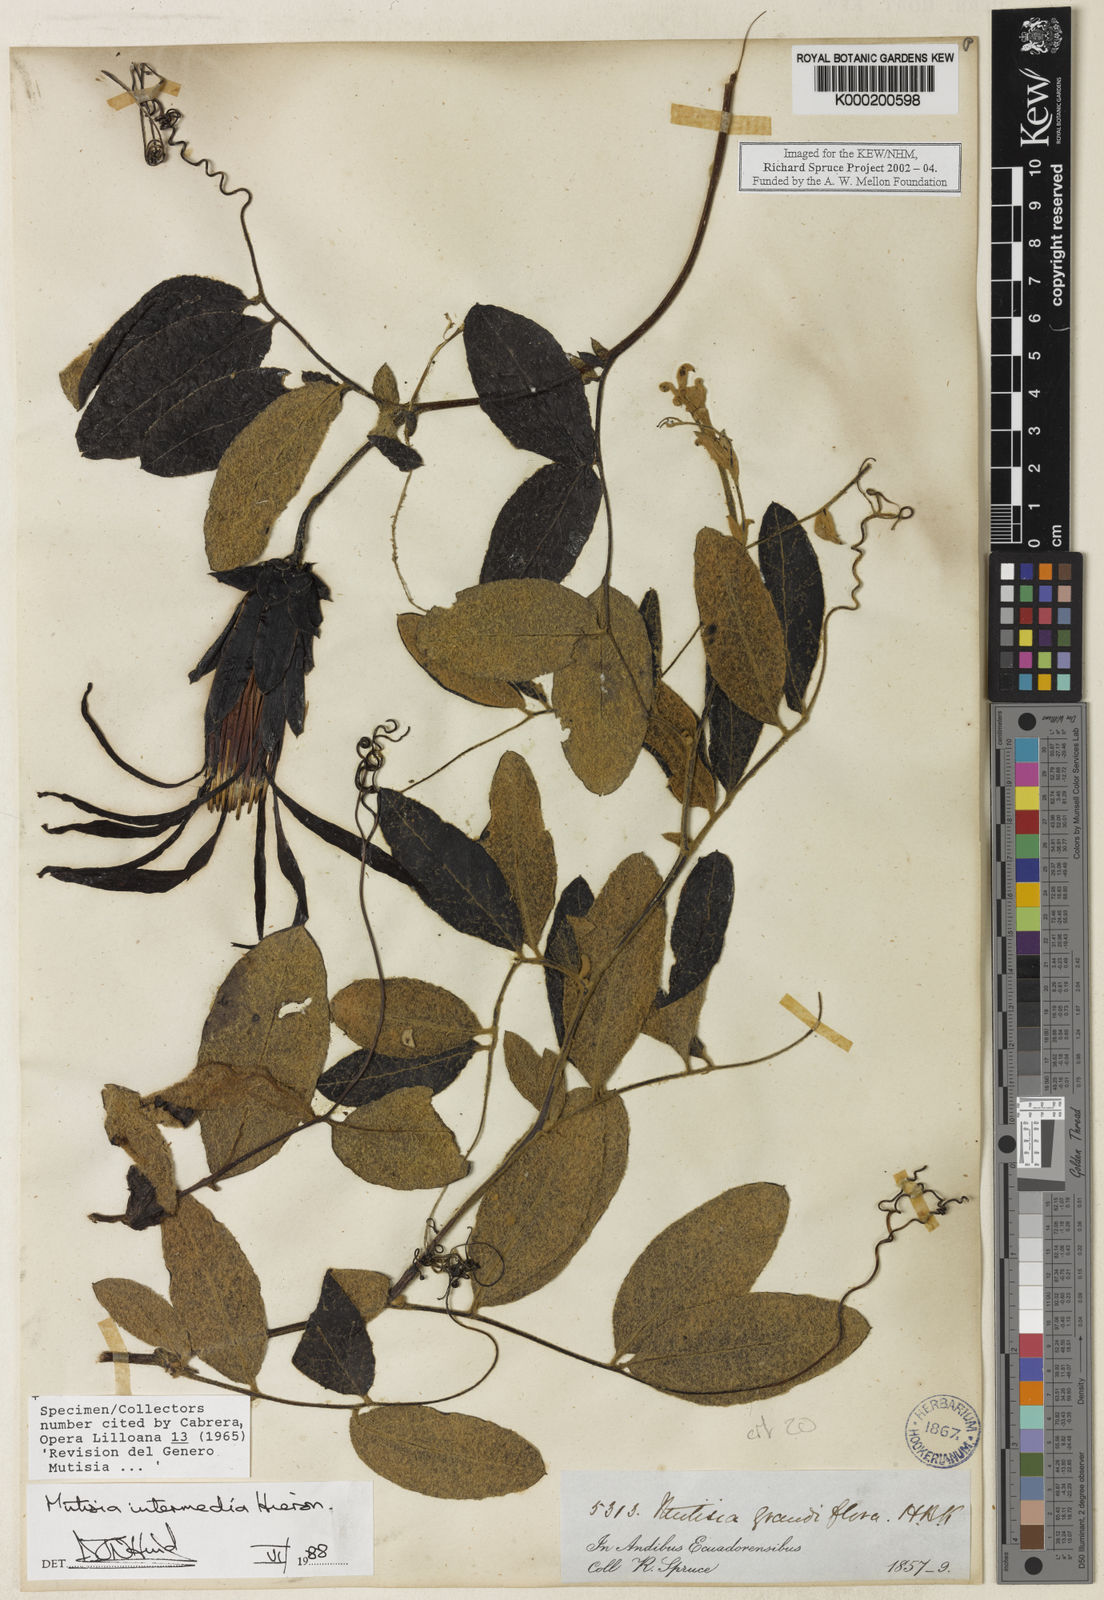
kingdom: Plantae
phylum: Tracheophyta
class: Magnoliopsida
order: Asterales
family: Asteraceae
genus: Mutisia
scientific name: Mutisia intermedia
